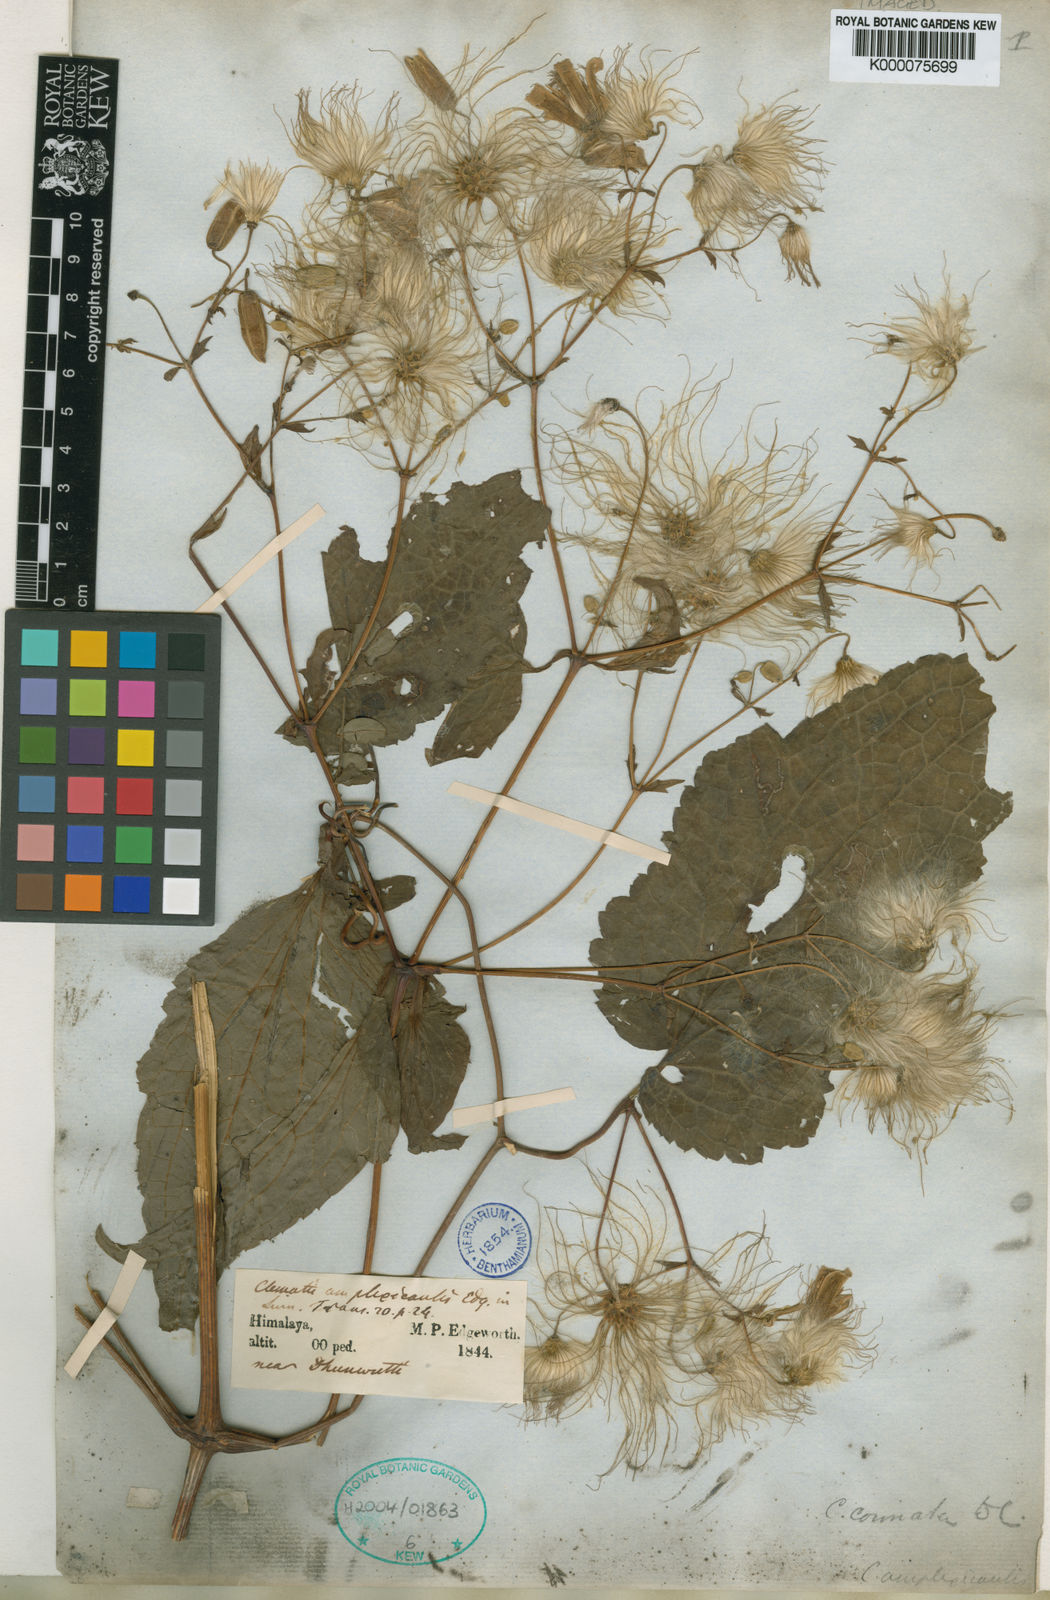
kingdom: Plantae
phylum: Tracheophyta
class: Magnoliopsida
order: Ranunculales
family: Ranunculaceae
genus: Clematis
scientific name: Clematis connata
